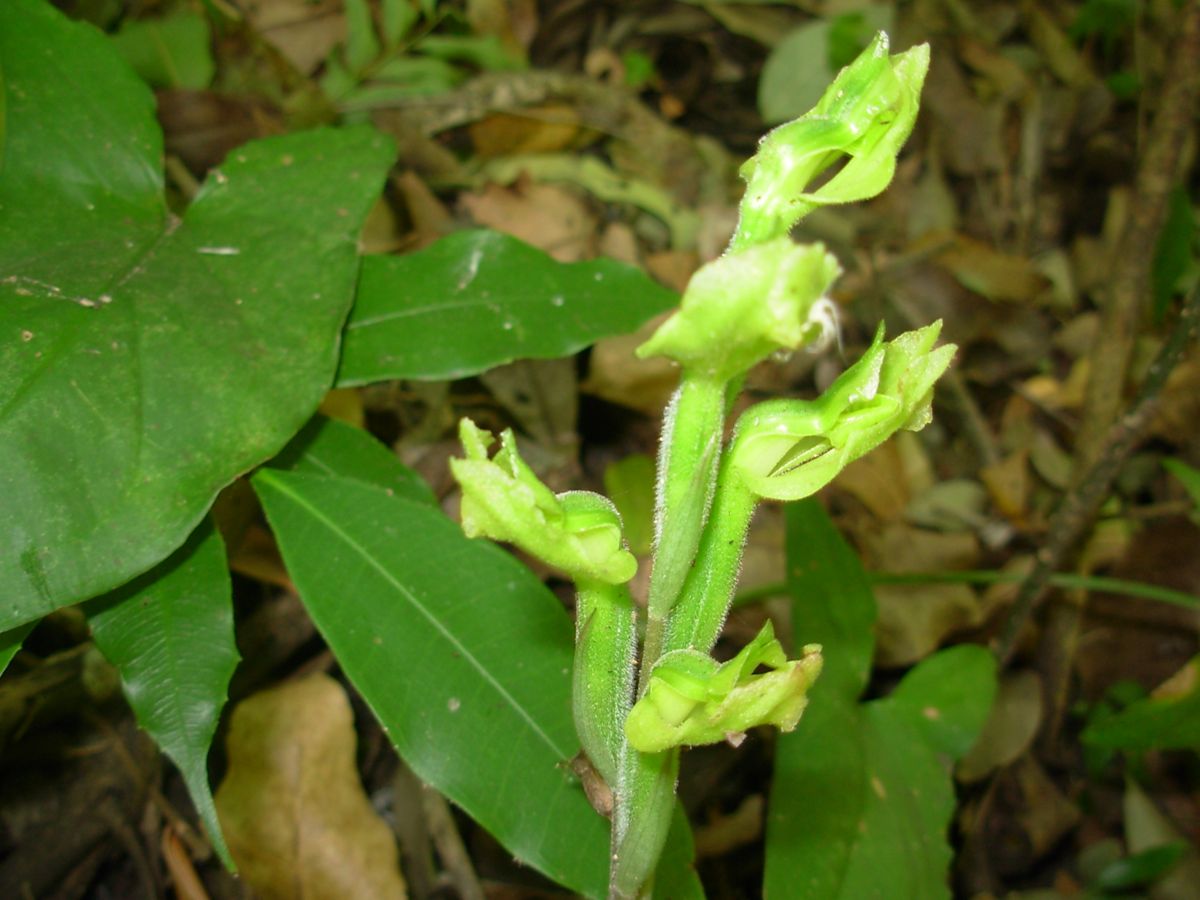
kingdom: Plantae
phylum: Tracheophyta
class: Liliopsida
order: Asparagales
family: Orchidaceae
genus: Sarcoglottis
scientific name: Sarcoglottis cerina
